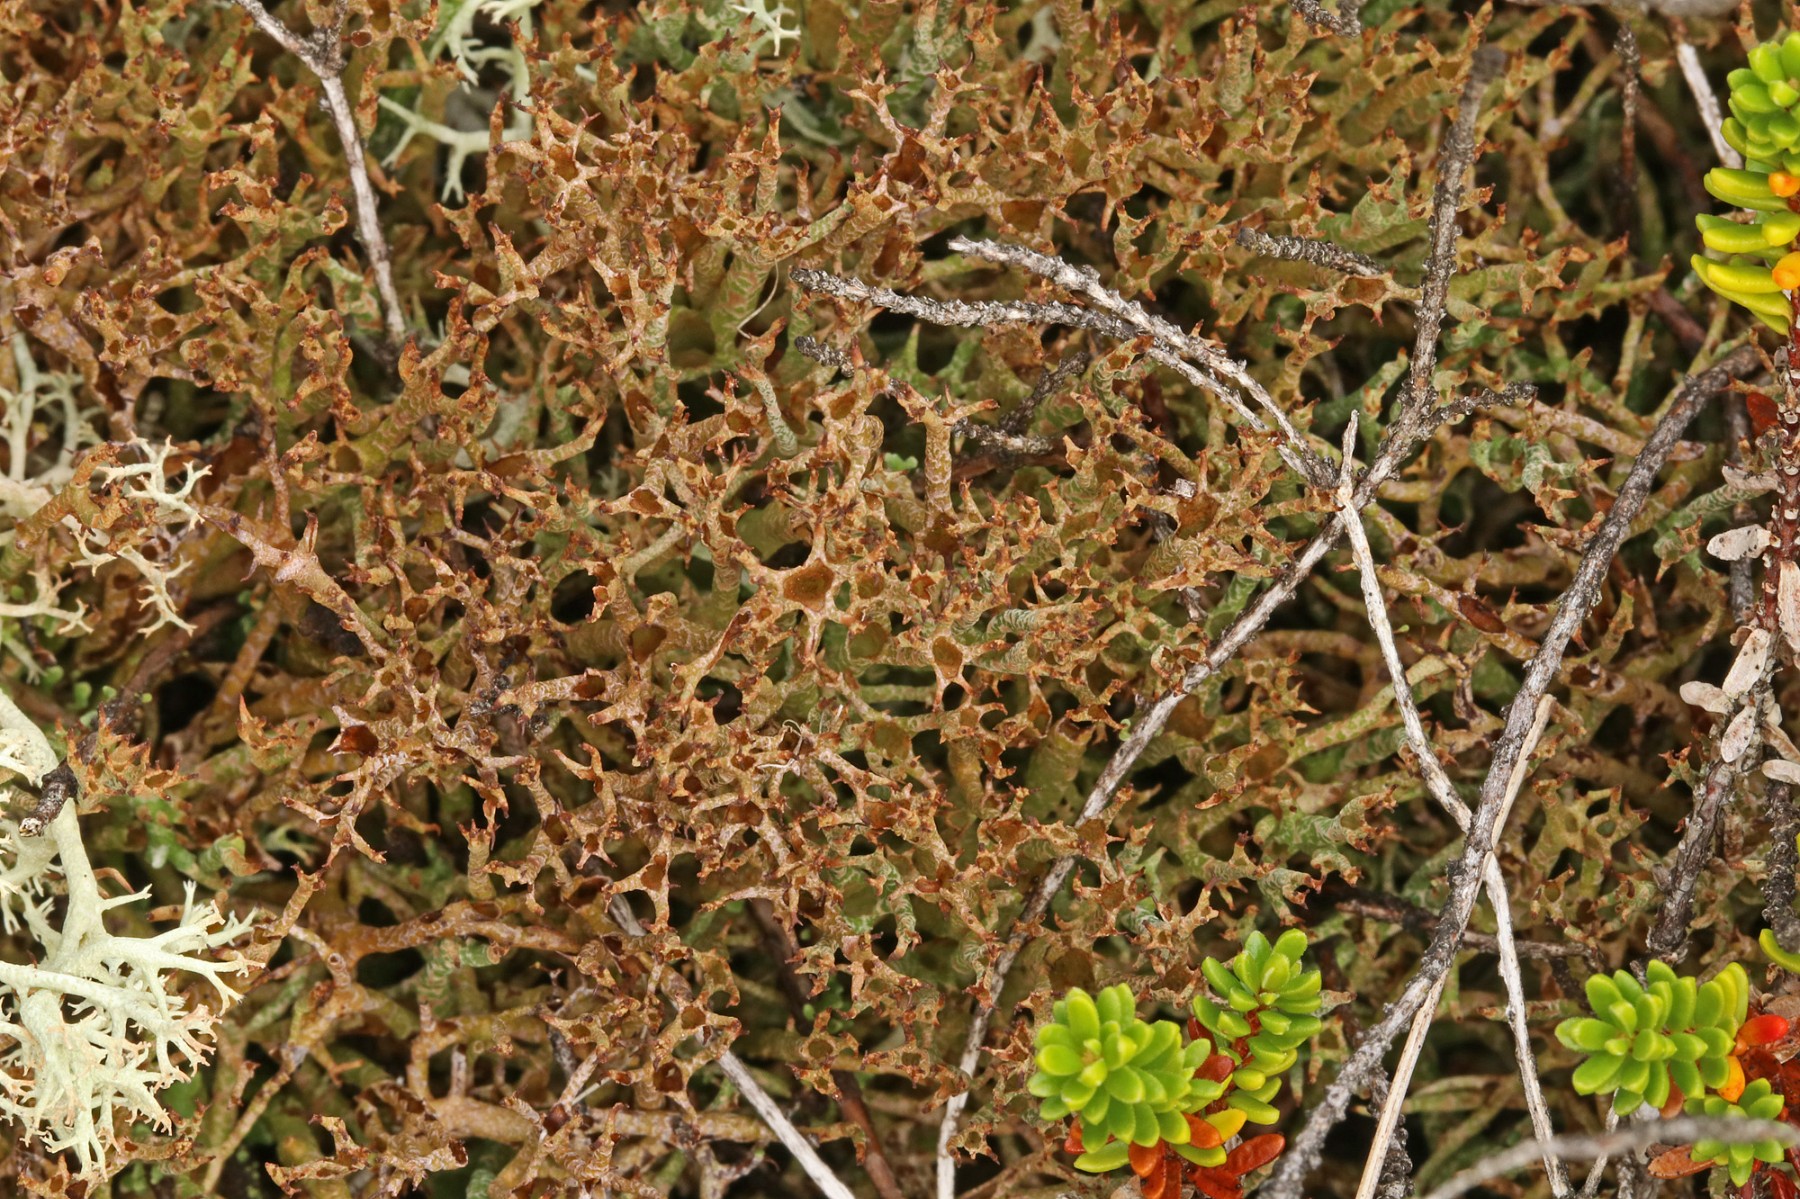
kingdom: Fungi
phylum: Ascomycota
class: Lecanoromycetes
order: Lecanorales
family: Cladoniaceae
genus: Cladonia
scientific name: Cladonia crispata
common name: takket bægerlav
